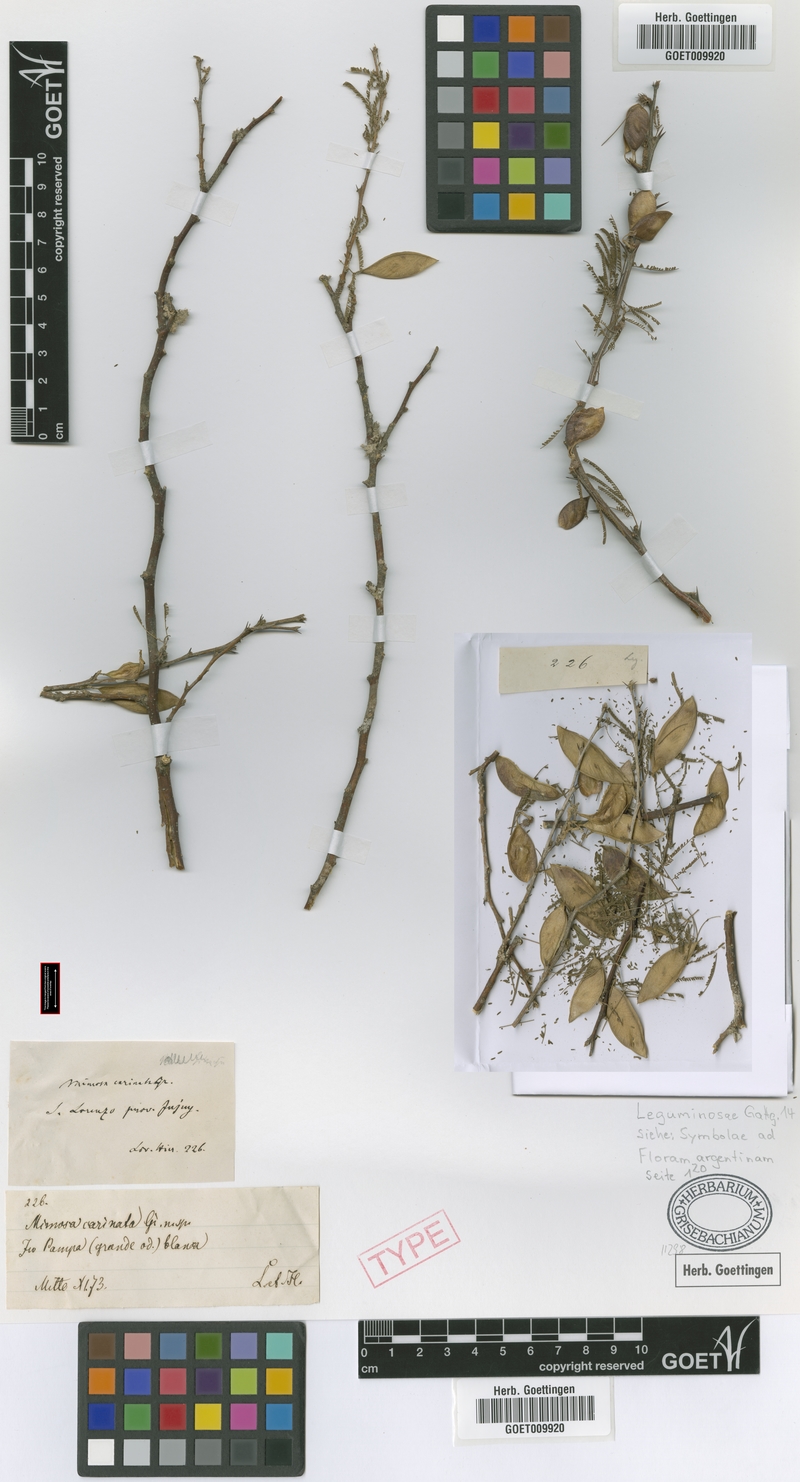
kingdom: Plantae
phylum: Tracheophyta
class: Magnoliopsida
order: Fabales
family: Fabaceae
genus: Mimozyganthus
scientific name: Mimozyganthus carinatus
